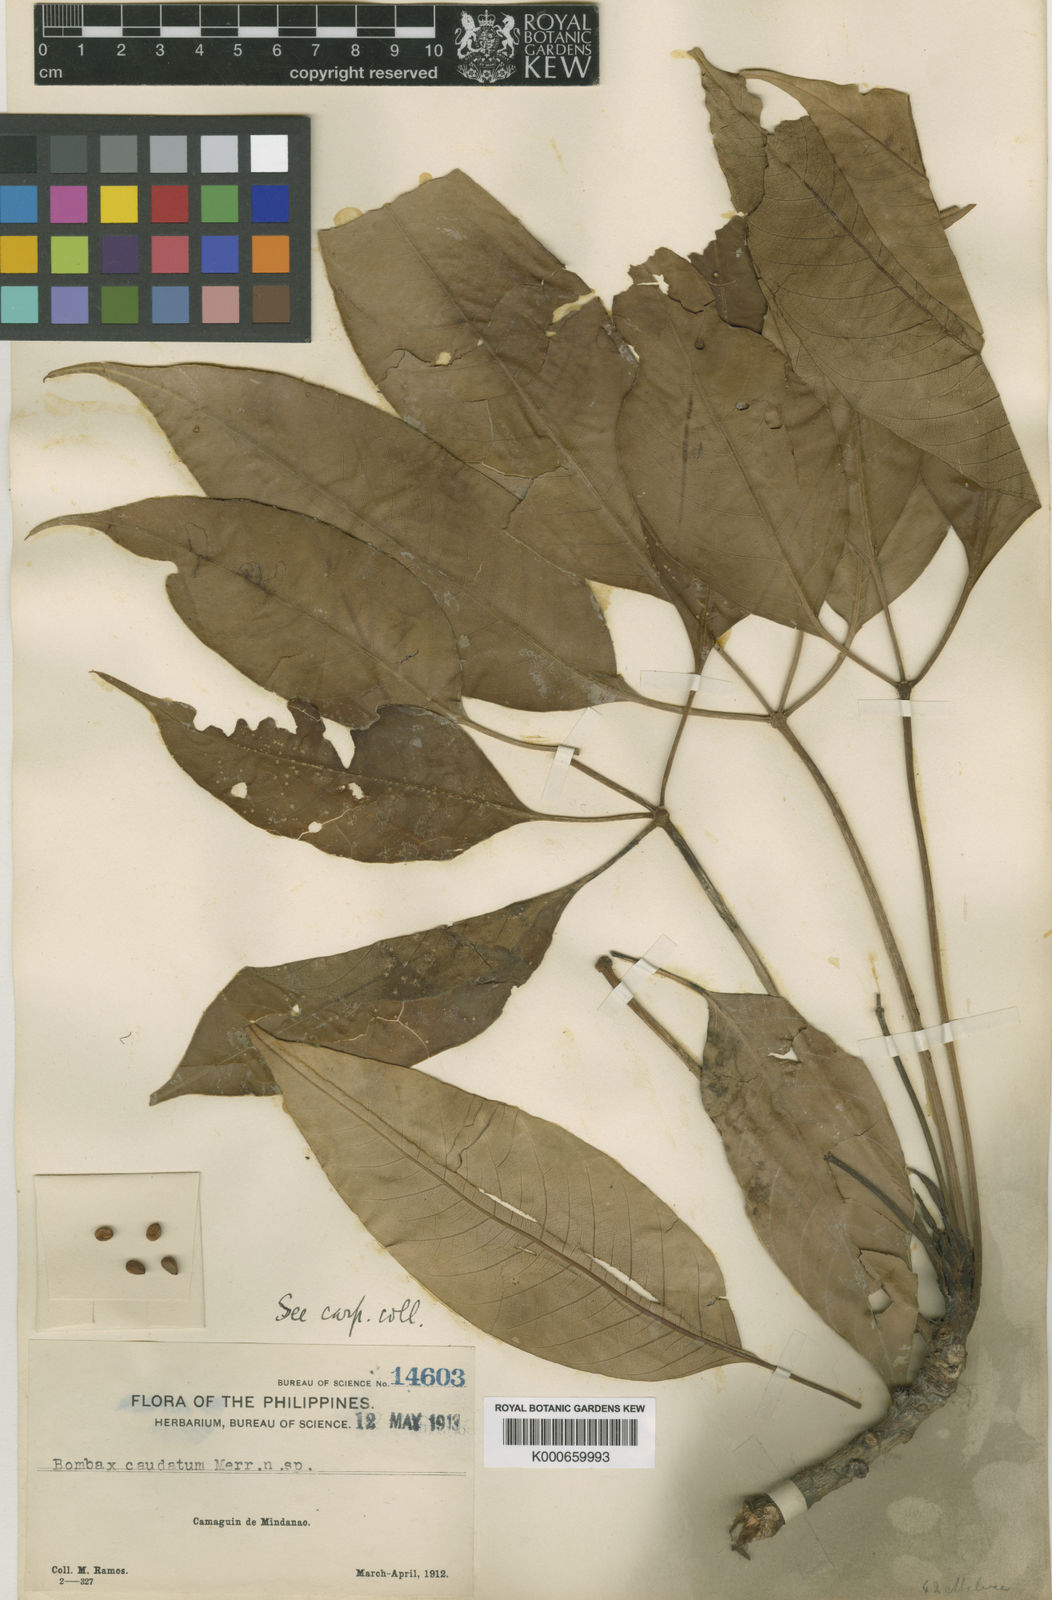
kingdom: Plantae
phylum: Tracheophyta
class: Magnoliopsida
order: Malvales
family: Malvaceae
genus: Bombax
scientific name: Bombax ceiba
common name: Northern-cottonwood
